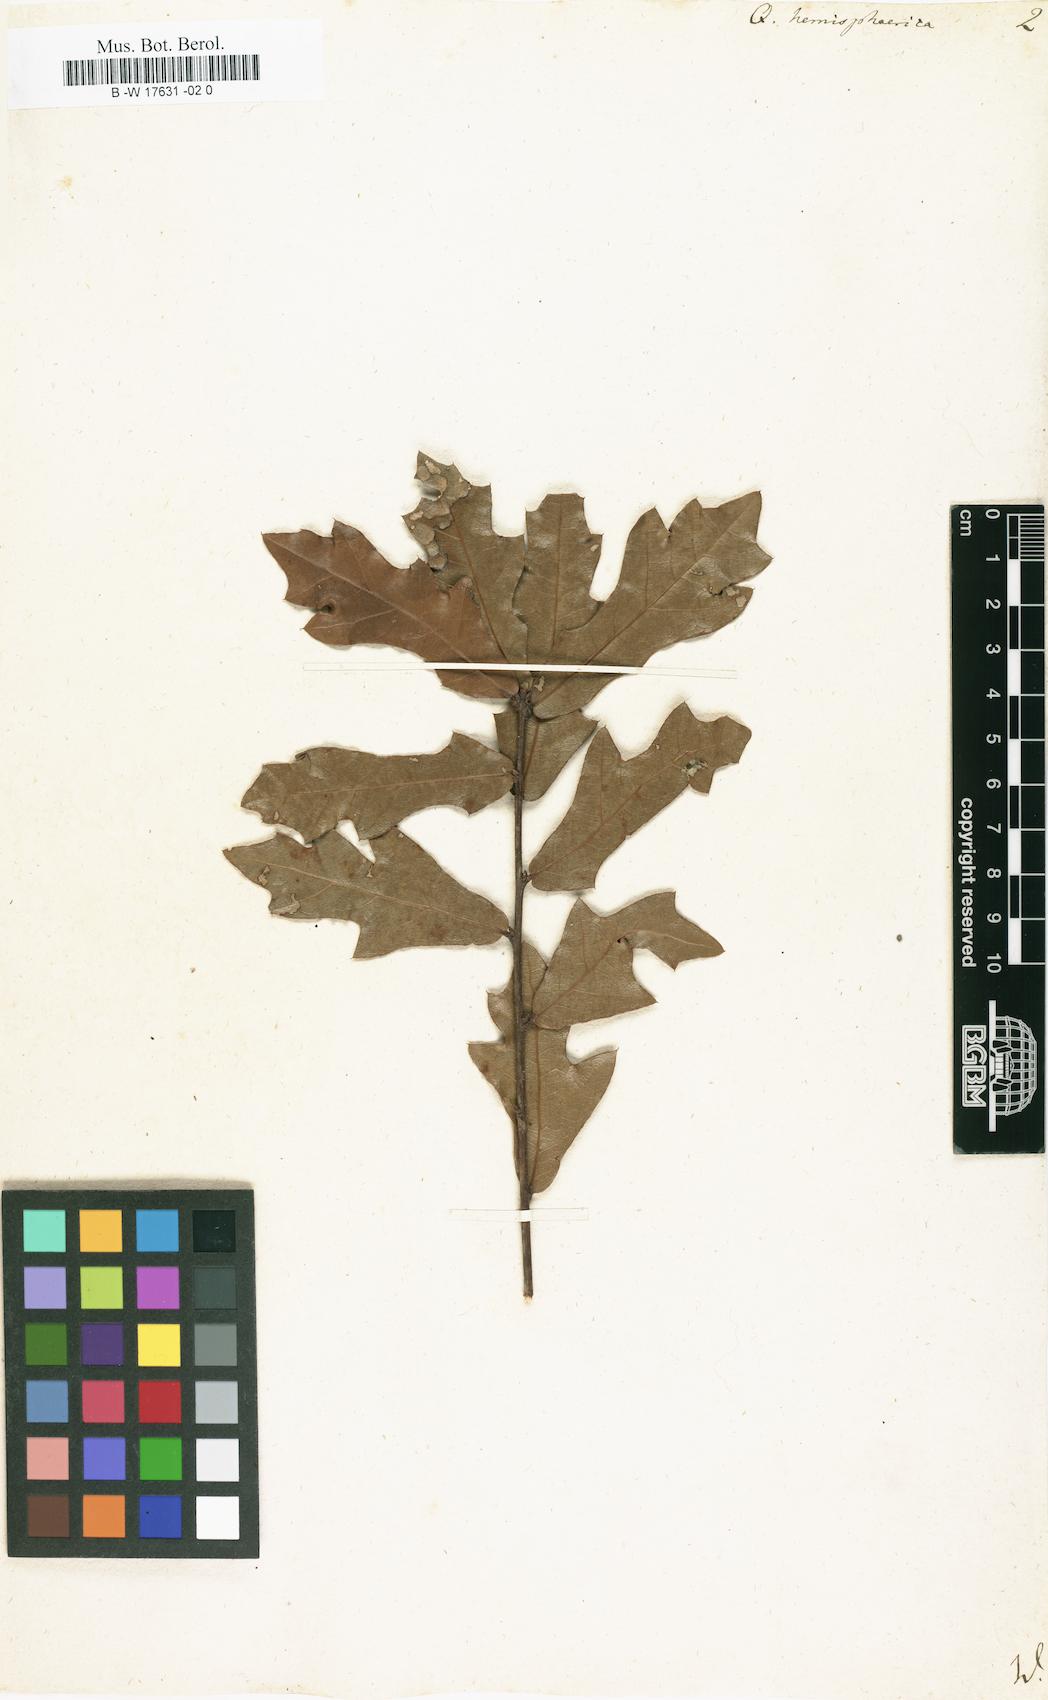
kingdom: Plantae
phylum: Tracheophyta
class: Magnoliopsida
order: Fagales
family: Fagaceae
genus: Quercus
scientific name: Quercus hemisphaerica
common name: Darlington oak
